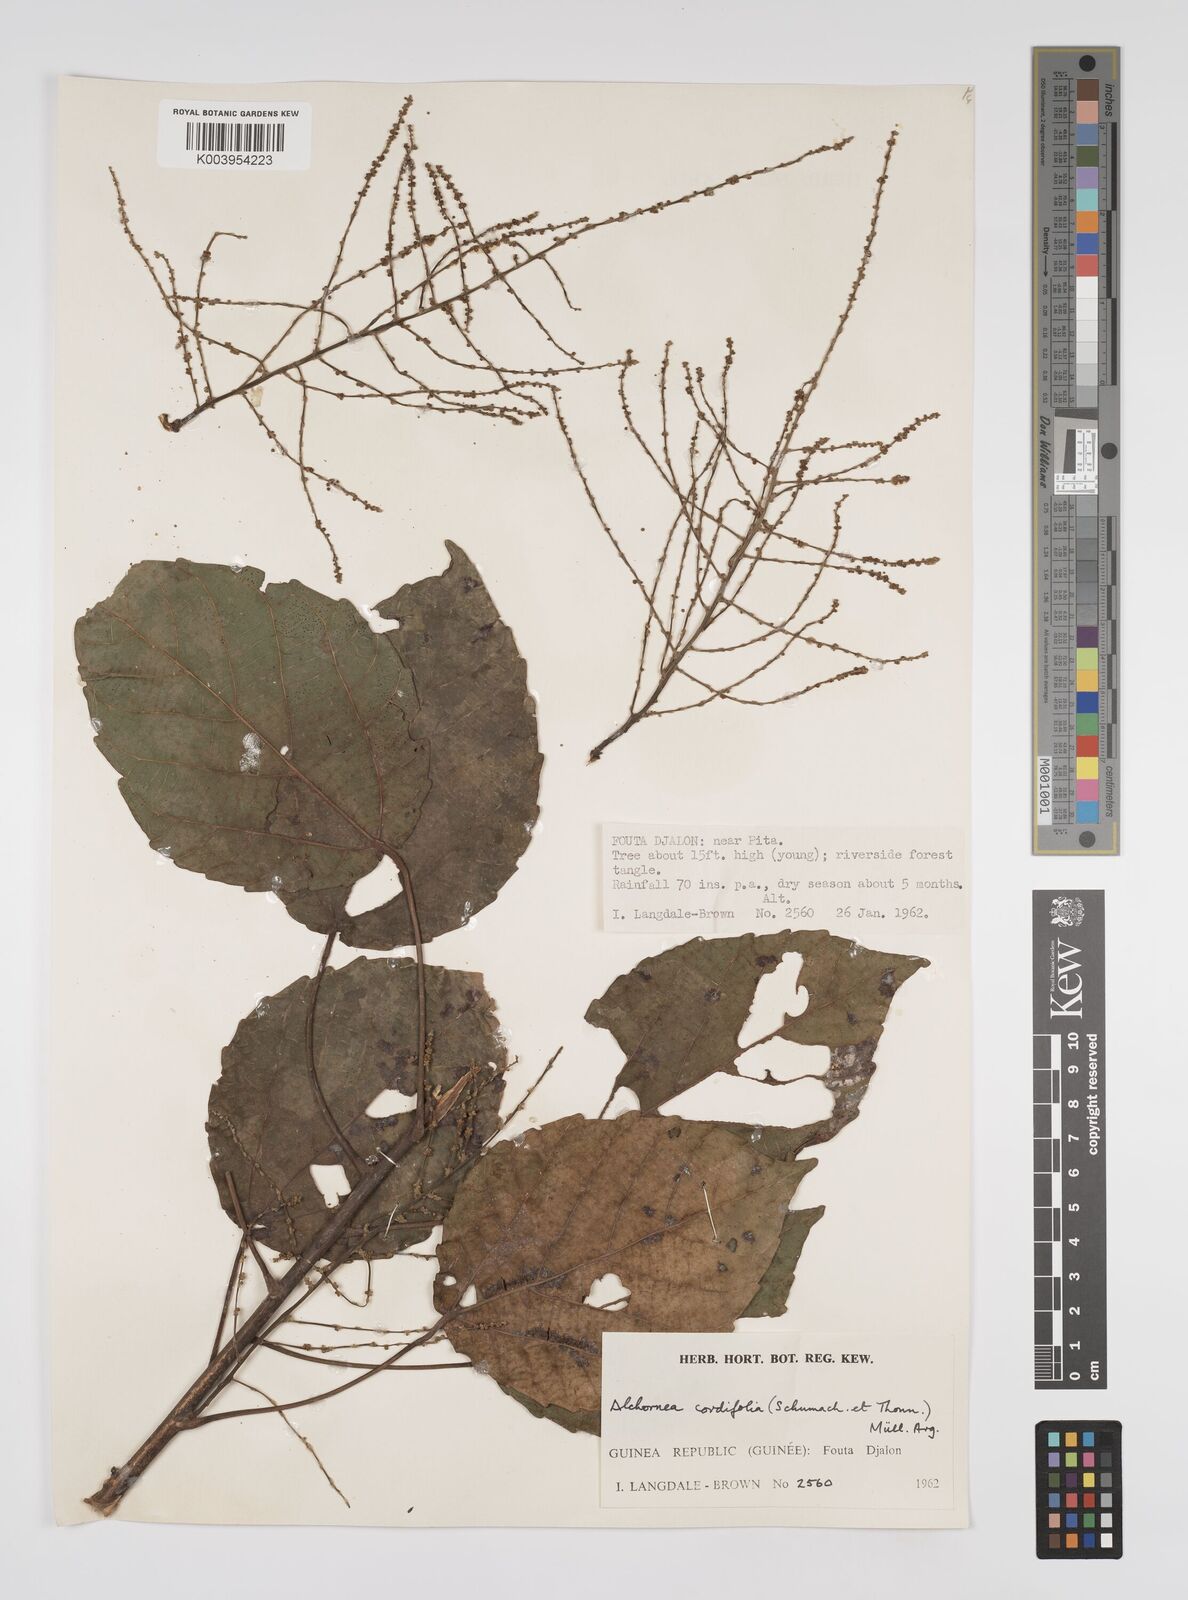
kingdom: Plantae
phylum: Tracheophyta
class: Magnoliopsida
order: Malpighiales
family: Euphorbiaceae
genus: Alchornea
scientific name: Alchornea cordifolia
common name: Christmasbush
